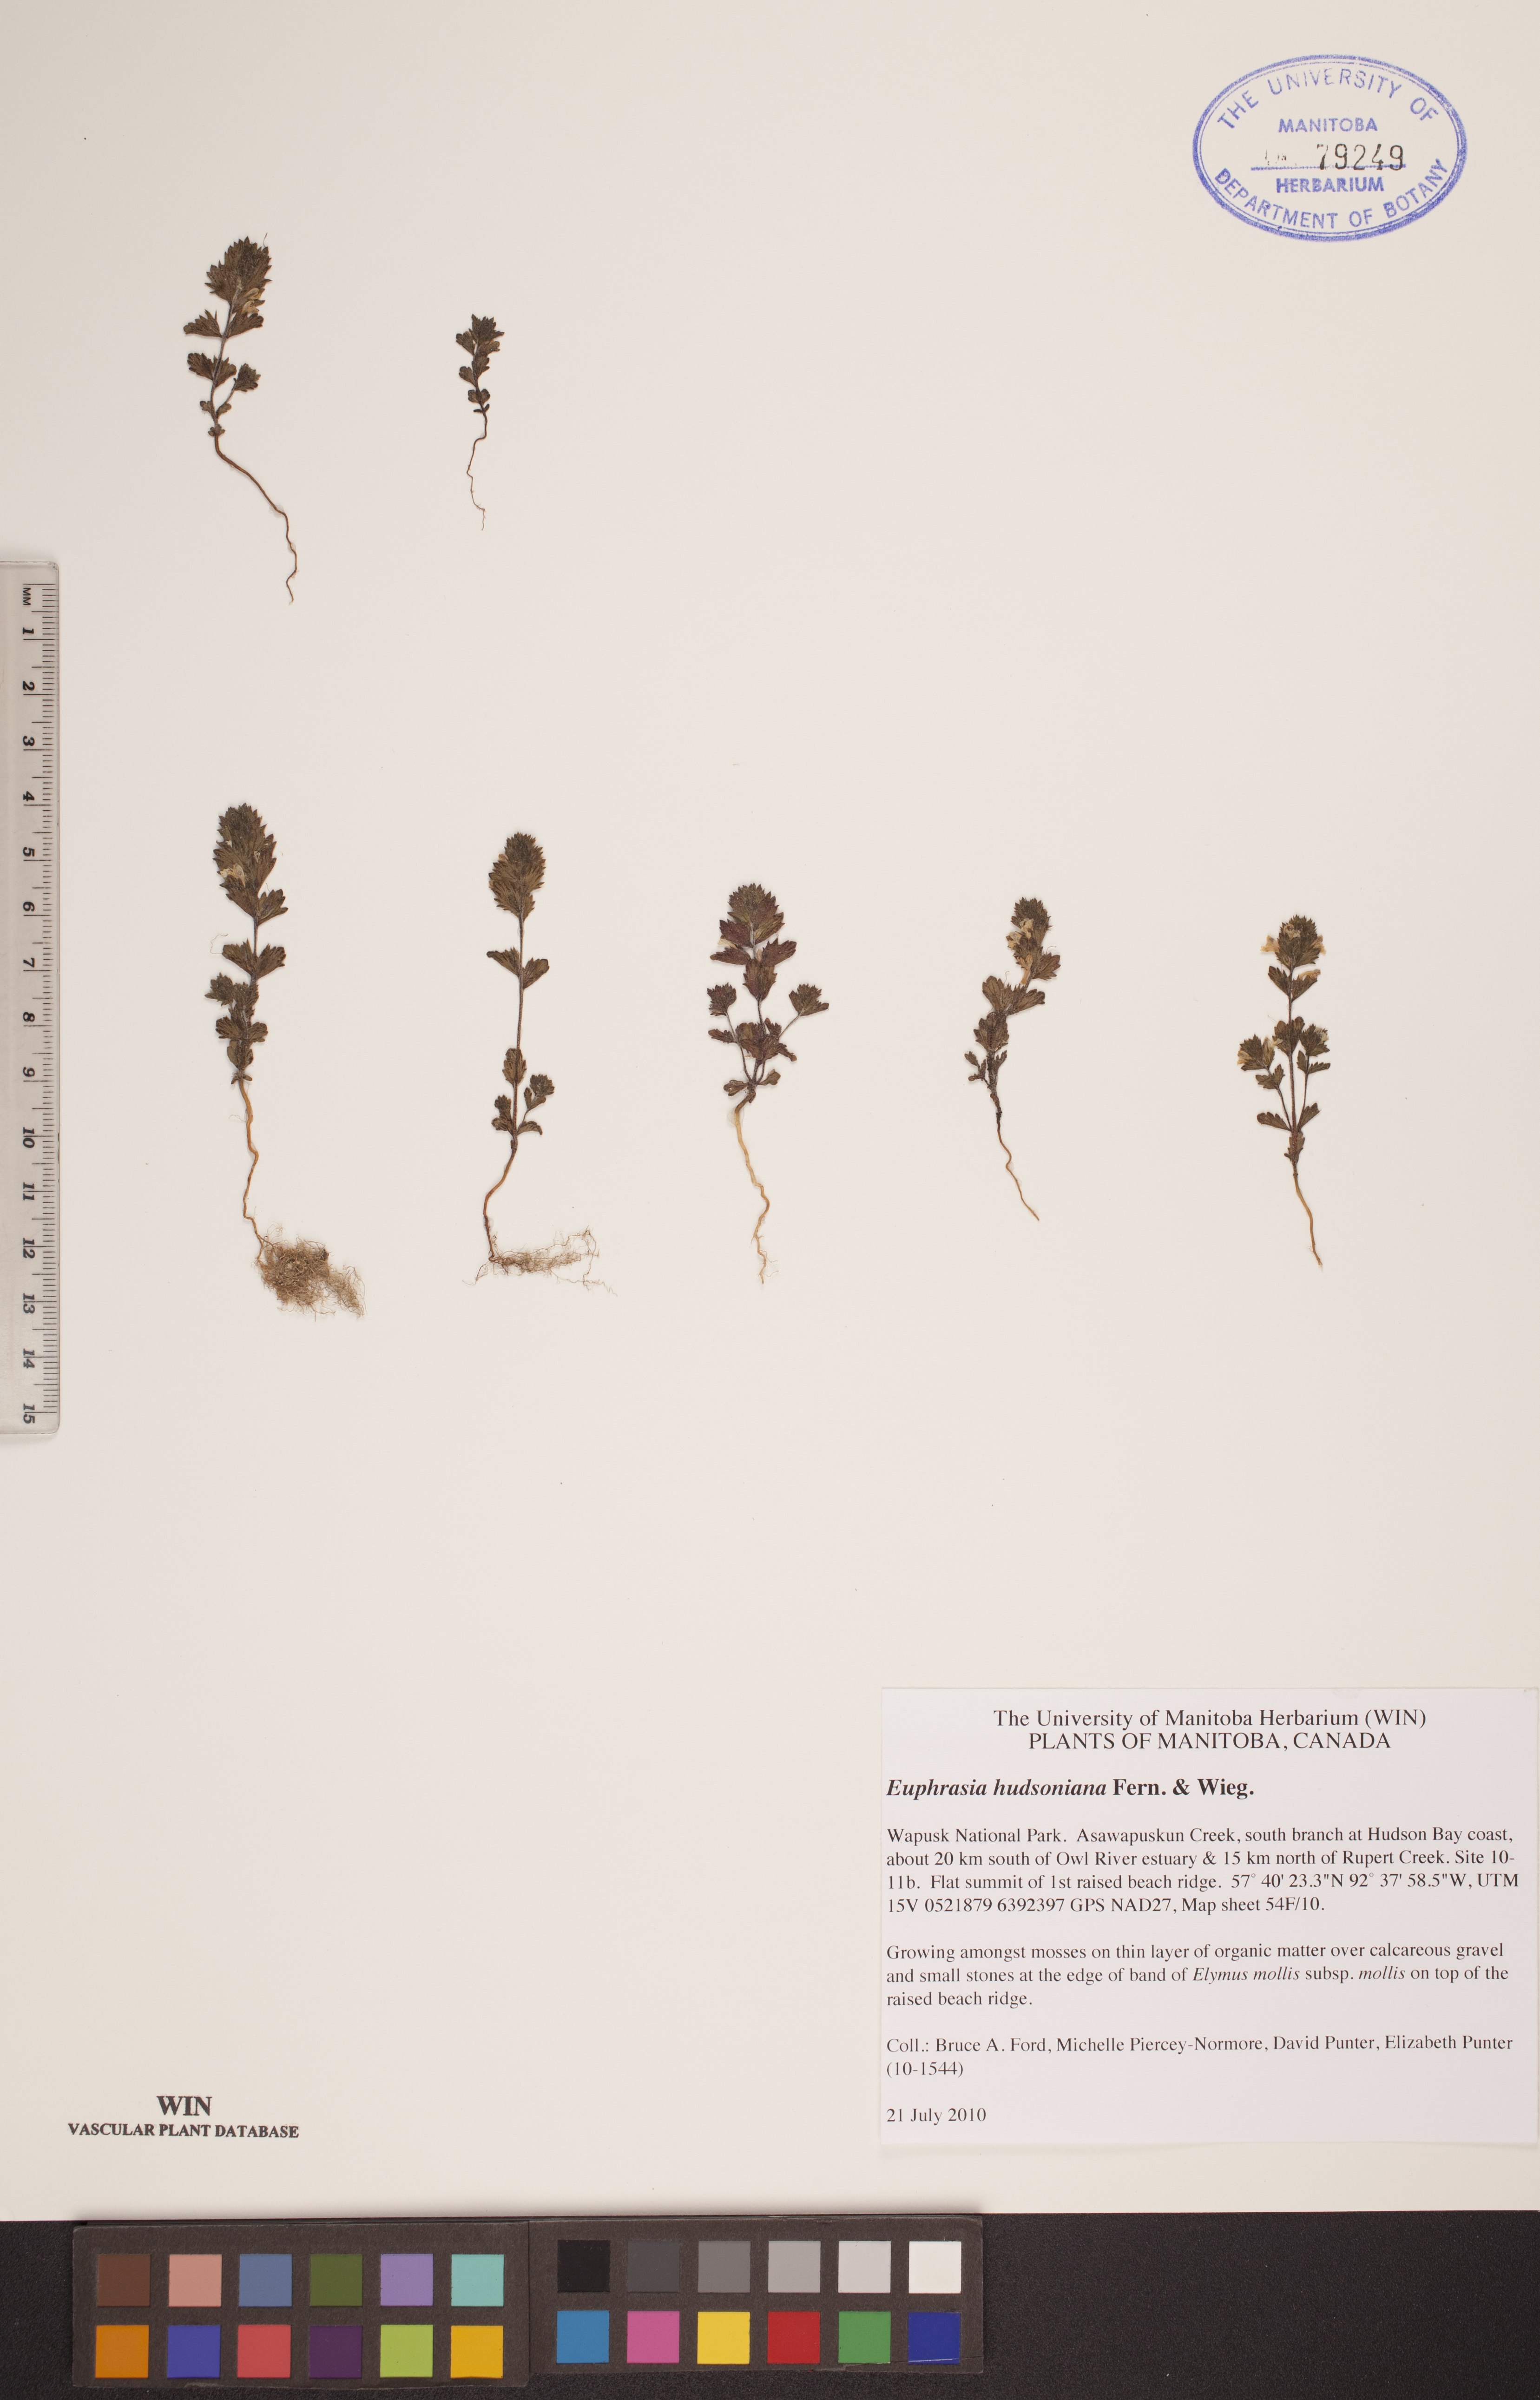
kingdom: Plantae
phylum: Tracheophyta
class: Magnoliopsida
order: Lamiales
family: Orobanchaceae
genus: Euphrasia
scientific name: Euphrasia hudsoniana
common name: Hudson bay eyebright
